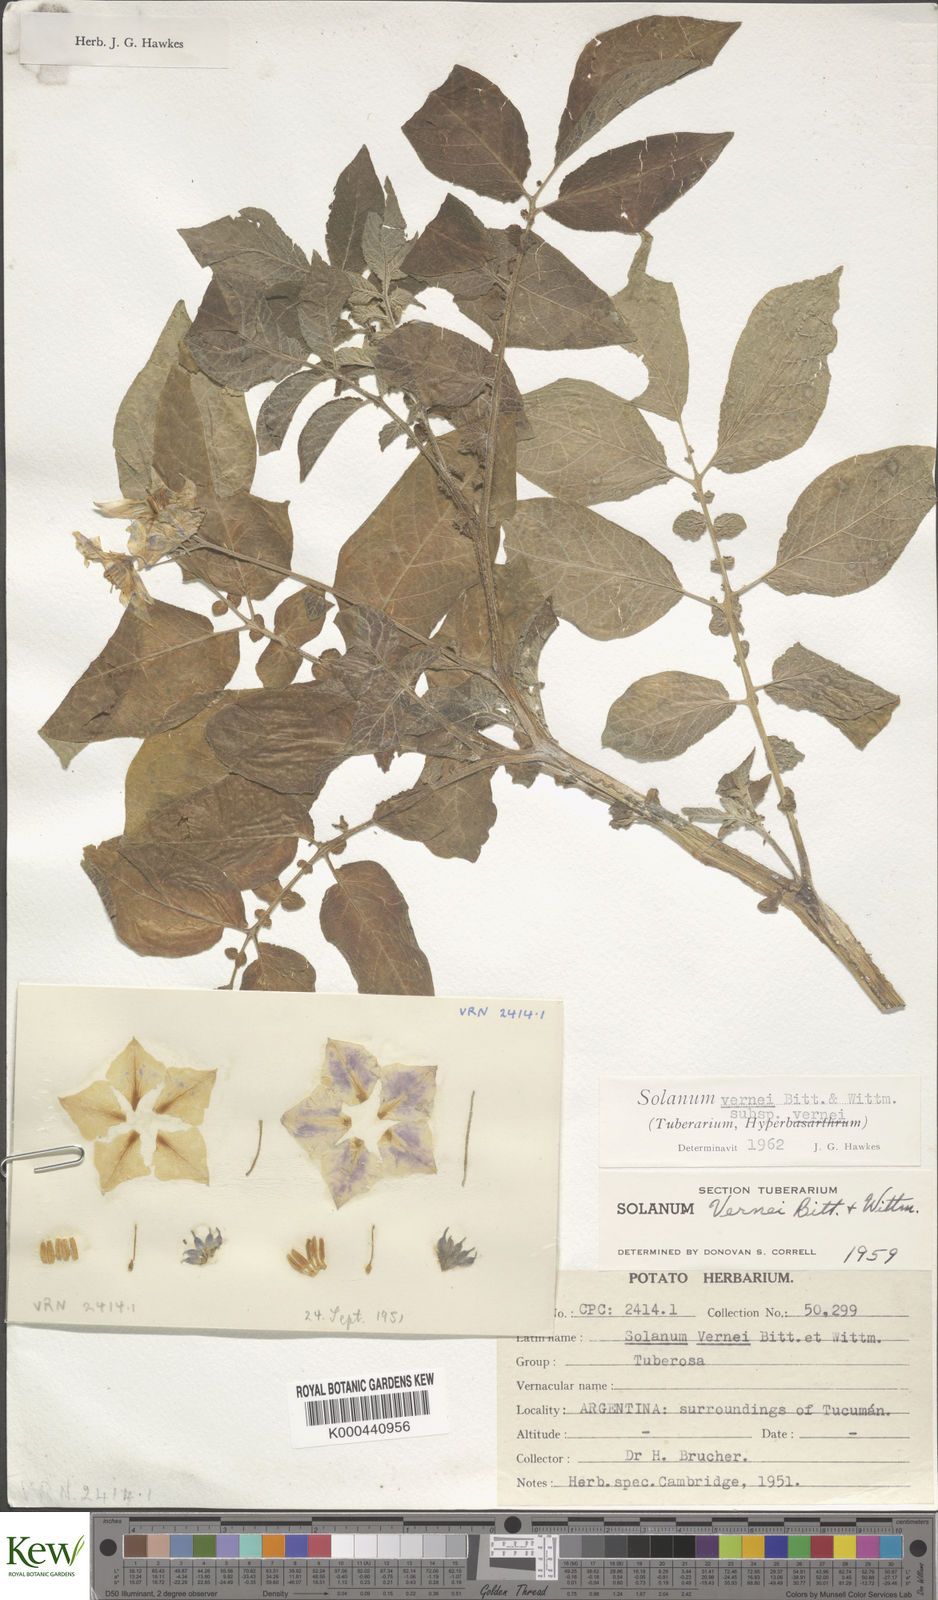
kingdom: Plantae
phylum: Tracheophyta
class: Magnoliopsida
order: Solanales
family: Solanaceae
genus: Solanum
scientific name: Solanum vernei
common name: Purple potato
